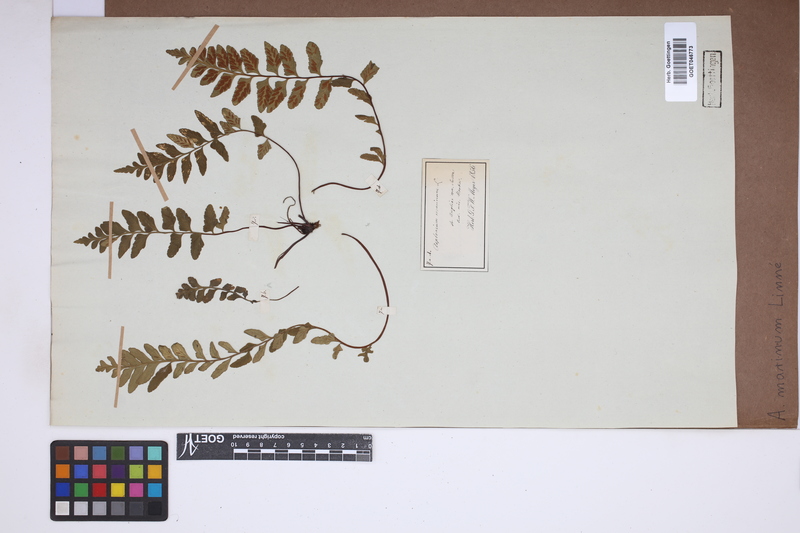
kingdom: Plantae
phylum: Tracheophyta
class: Polypodiopsida
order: Polypodiales
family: Aspleniaceae
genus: Asplenium
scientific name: Asplenium marinum
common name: Sea spleenwort
